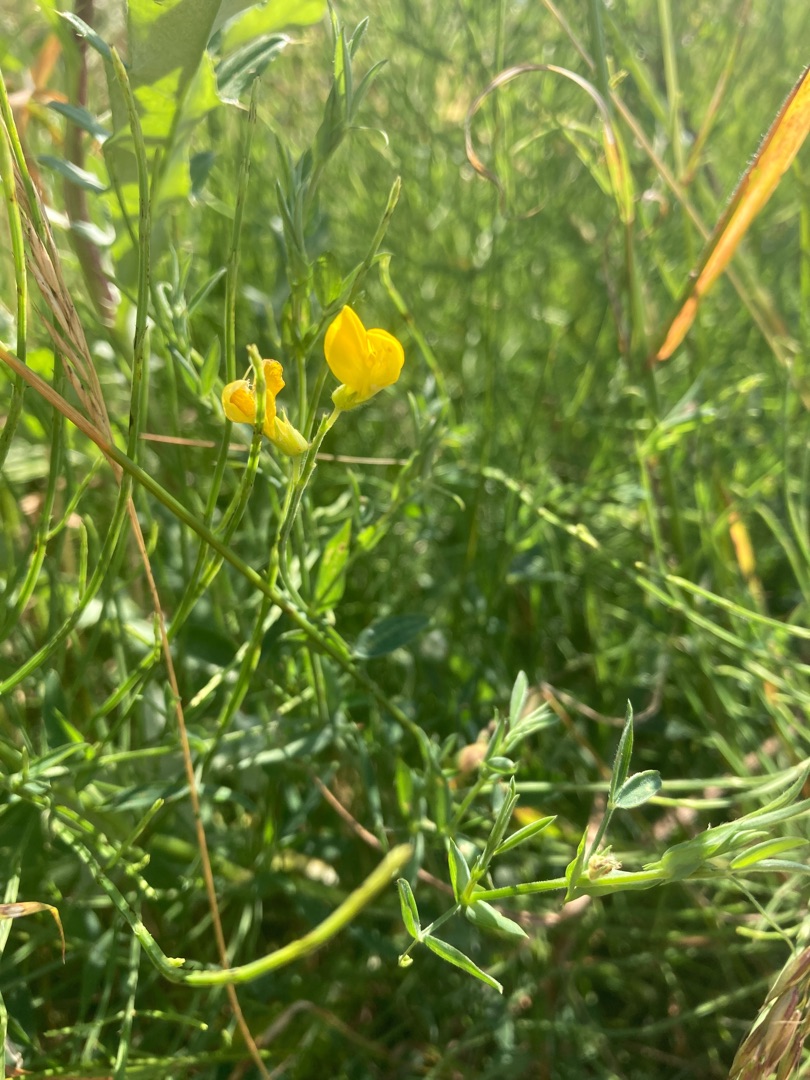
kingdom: Plantae
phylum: Tracheophyta
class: Magnoliopsida
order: Fabales
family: Fabaceae
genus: Lathyrus
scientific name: Lathyrus pratensis
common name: Gul fladbælg
